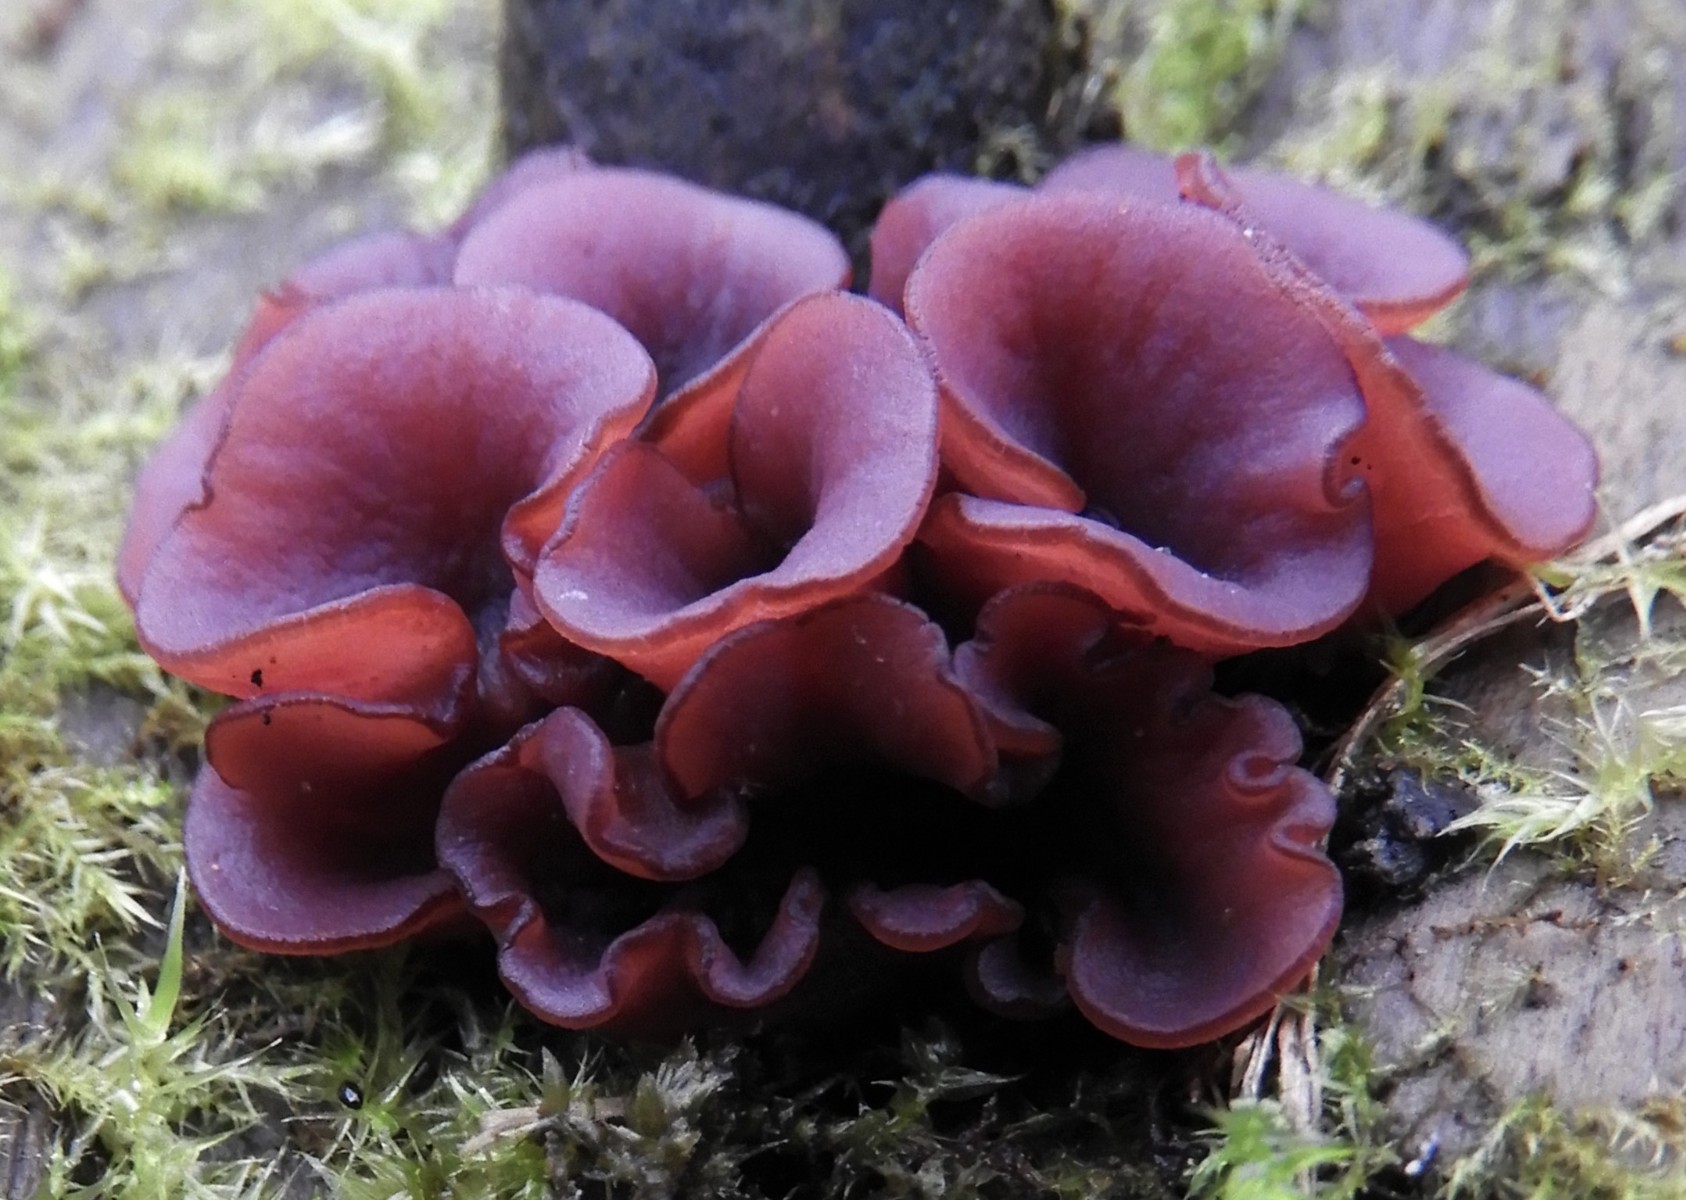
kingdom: Fungi
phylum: Ascomycota
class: Leotiomycetes
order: Helotiales
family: Gelatinodiscaceae
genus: Ascocoryne
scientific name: Ascocoryne cylichnium
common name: stor sejskive
